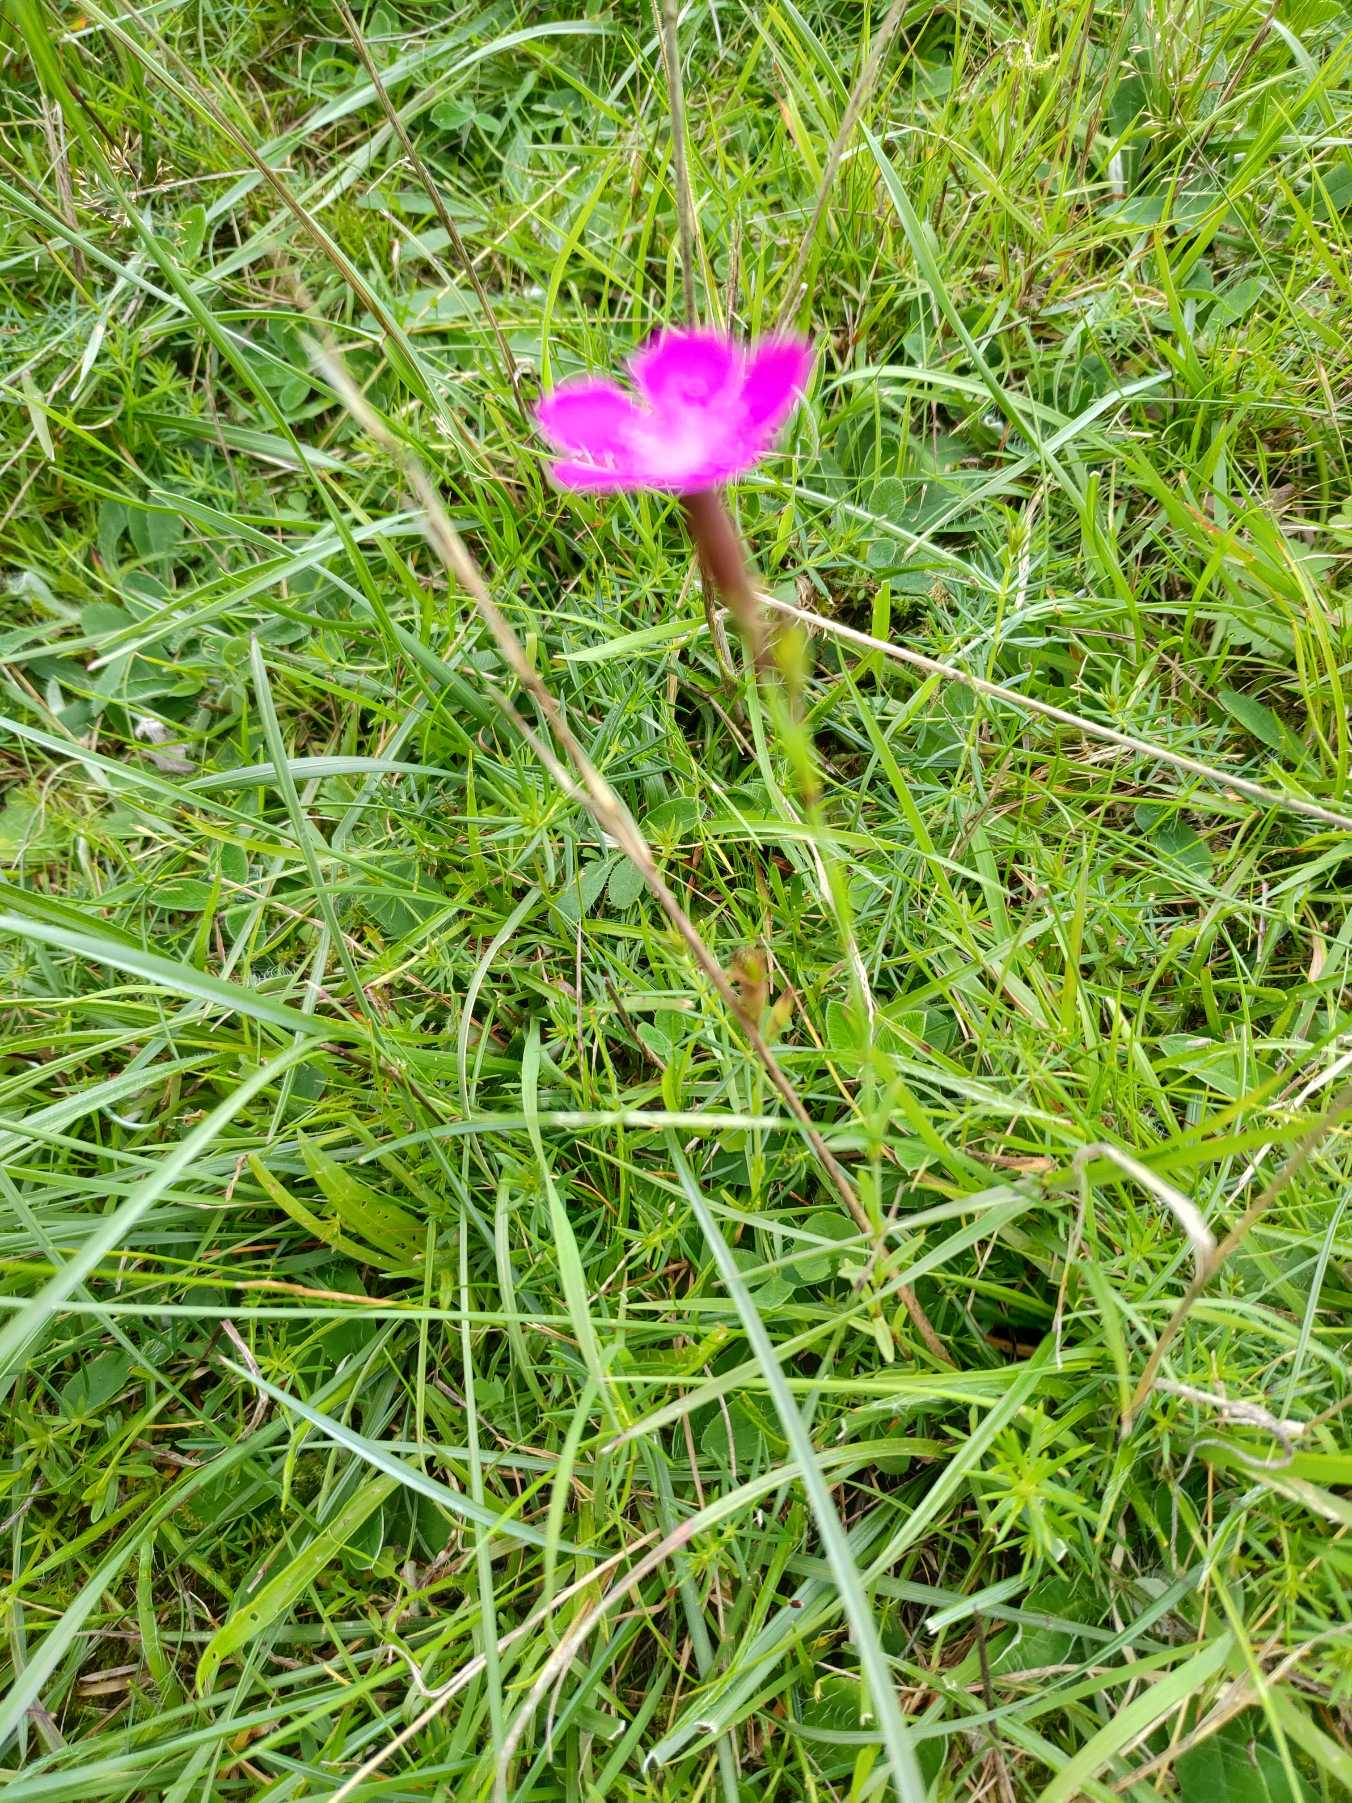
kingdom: Plantae
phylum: Tracheophyta
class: Magnoliopsida
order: Caryophyllales
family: Caryophyllaceae
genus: Dianthus
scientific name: Dianthus deltoides
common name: Bakke-nellike
